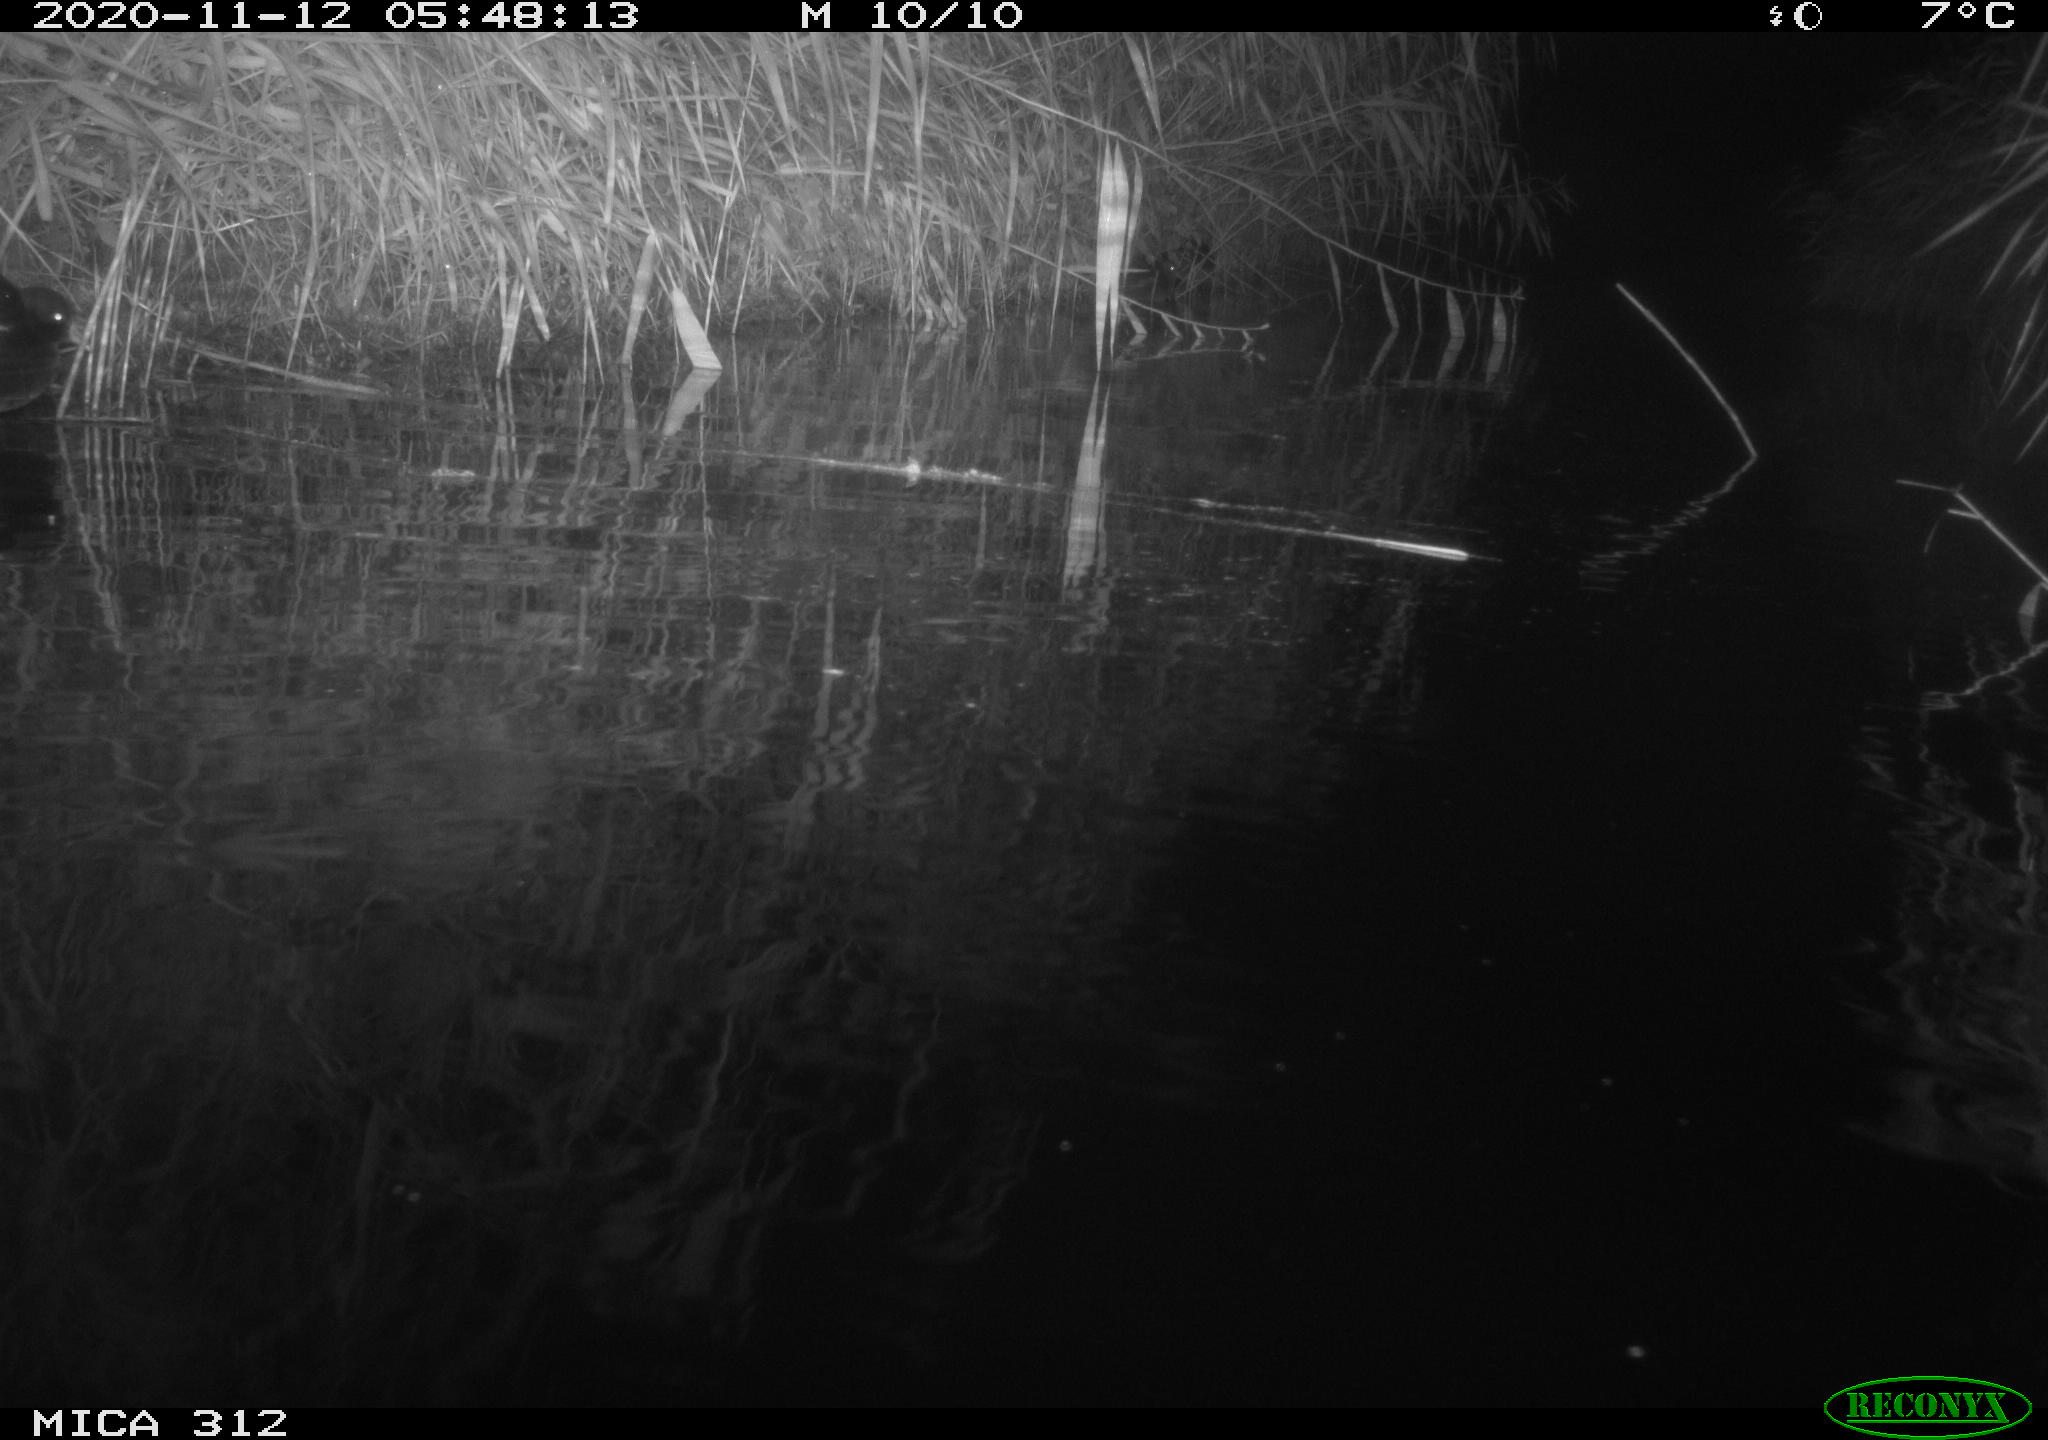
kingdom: Animalia
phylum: Chordata
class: Mammalia
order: Rodentia
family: Muridae
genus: Rattus
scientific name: Rattus norvegicus
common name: Brown rat
